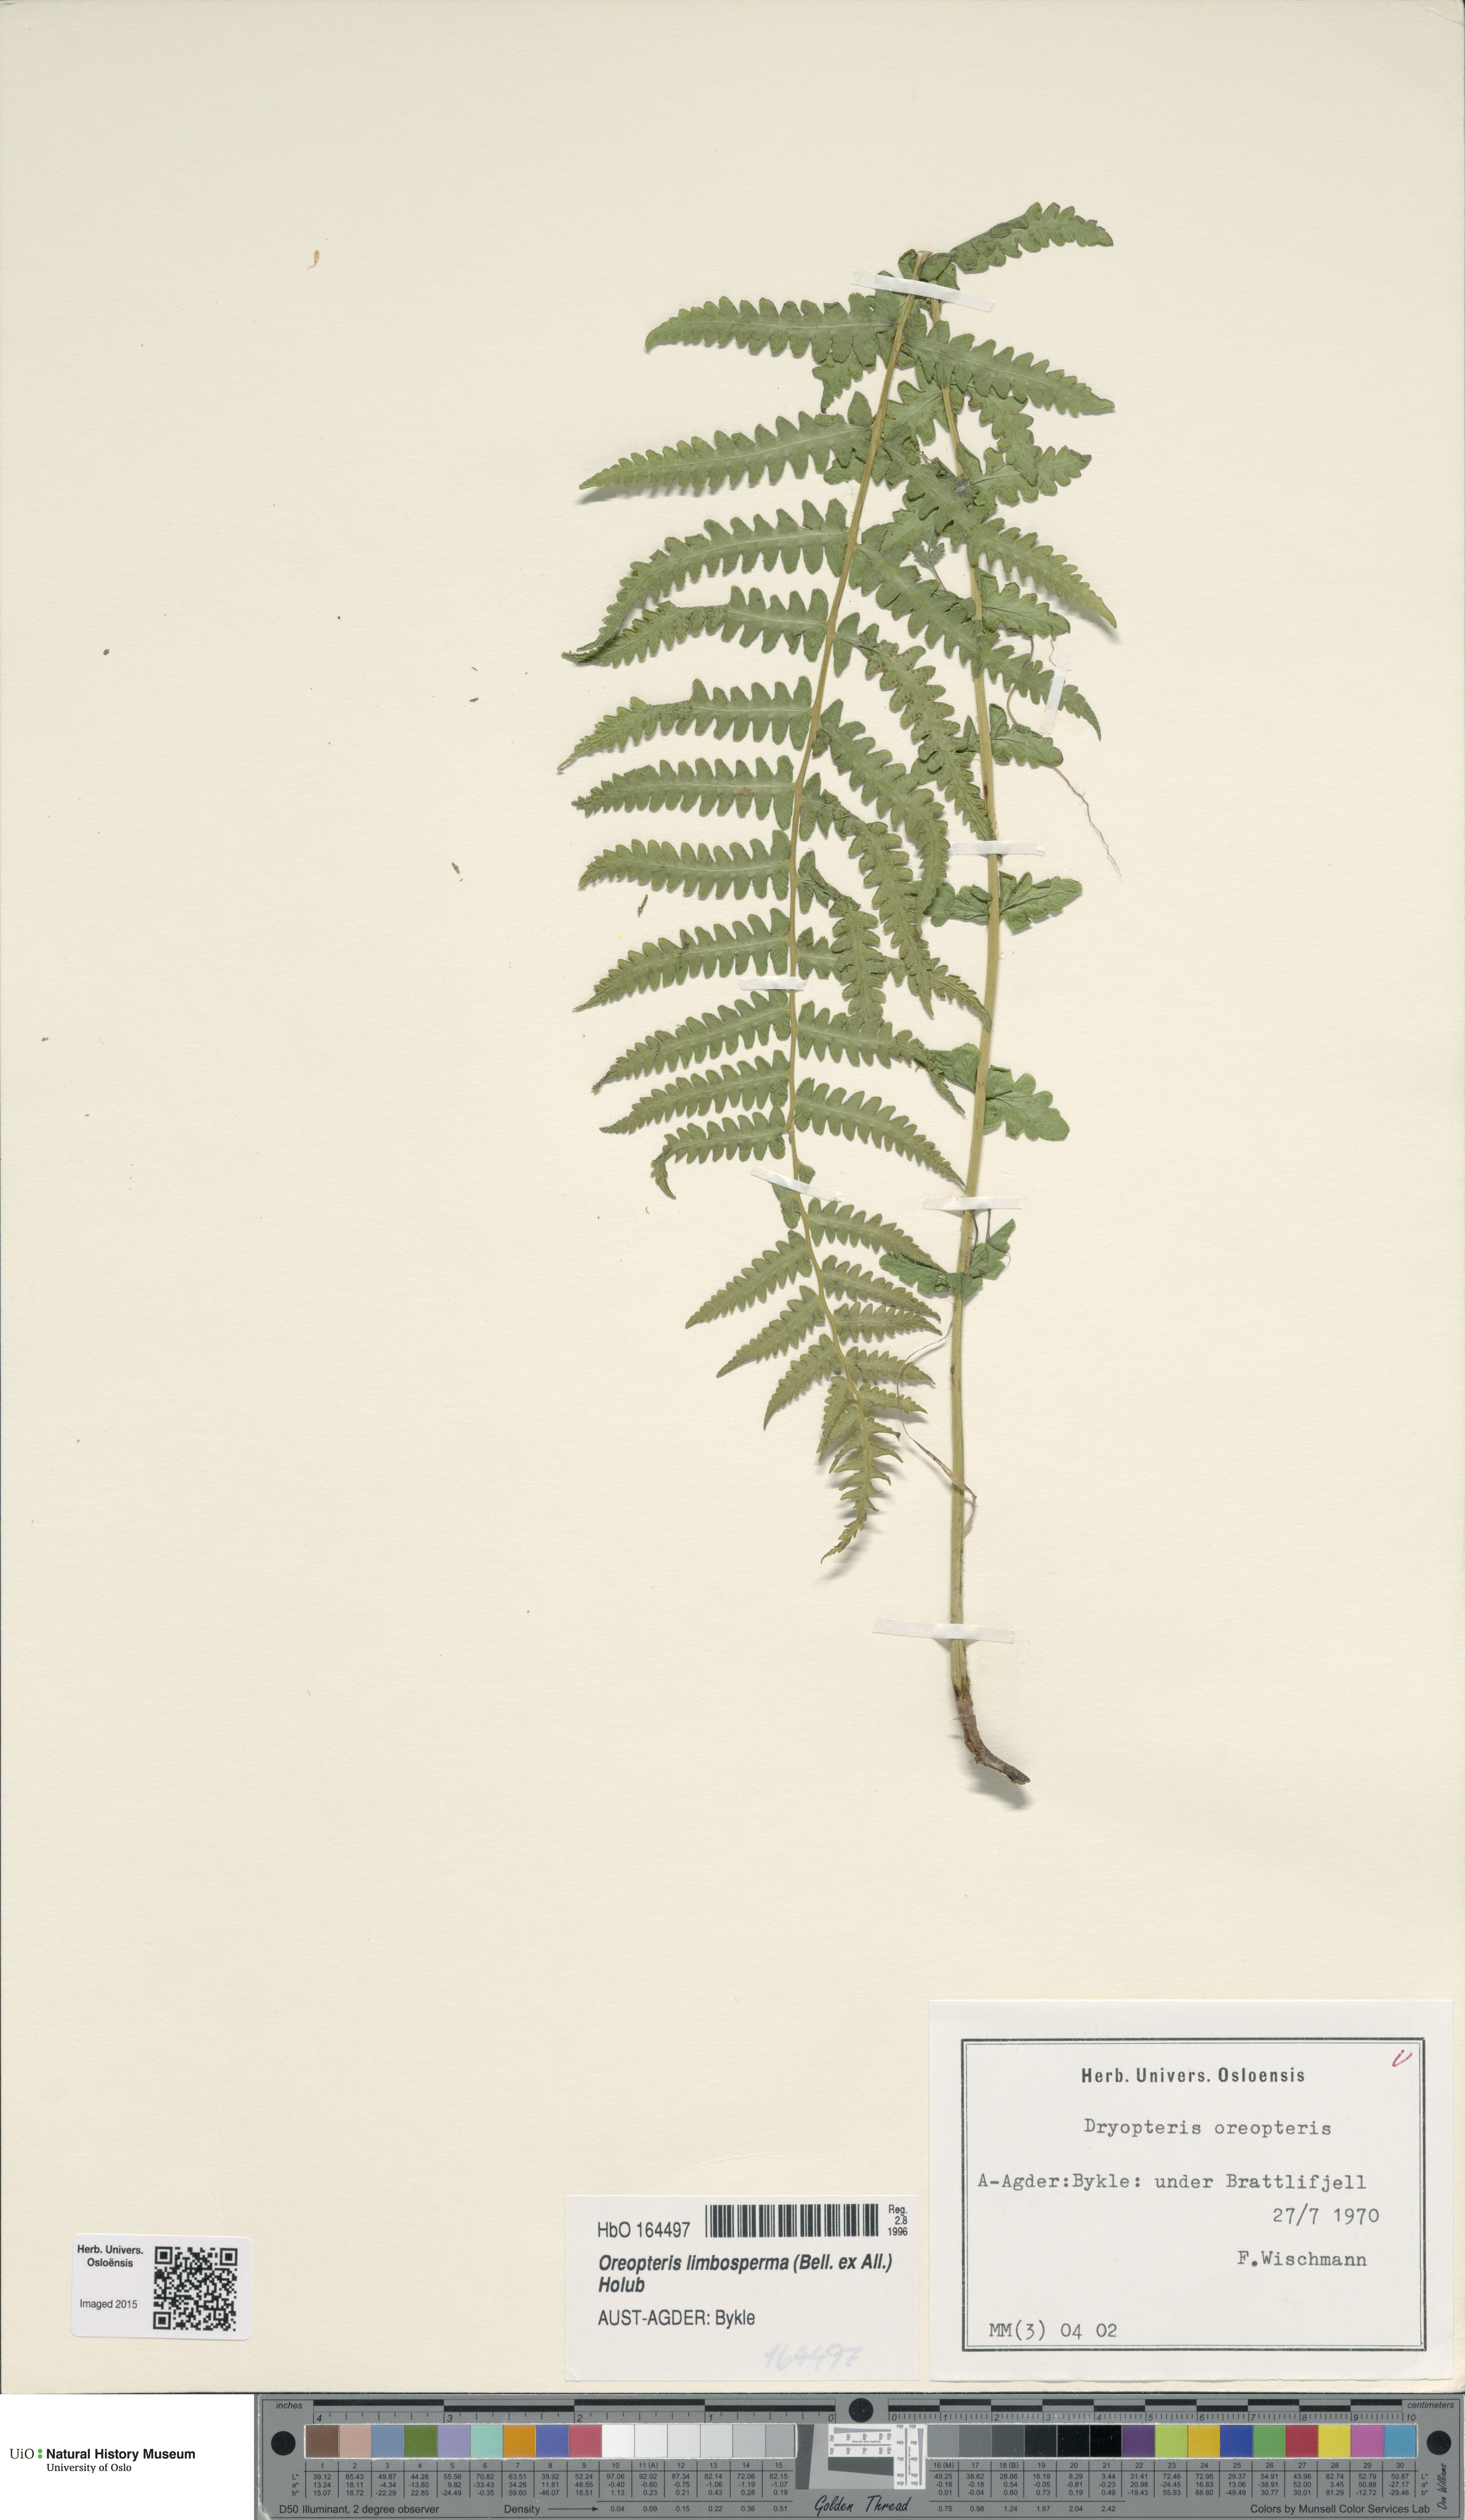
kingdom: Plantae
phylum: Tracheophyta
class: Polypodiopsida
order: Polypodiales
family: Thelypteridaceae
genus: Oreopteris
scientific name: Oreopteris limbosperma
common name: Lemon-scented fern
